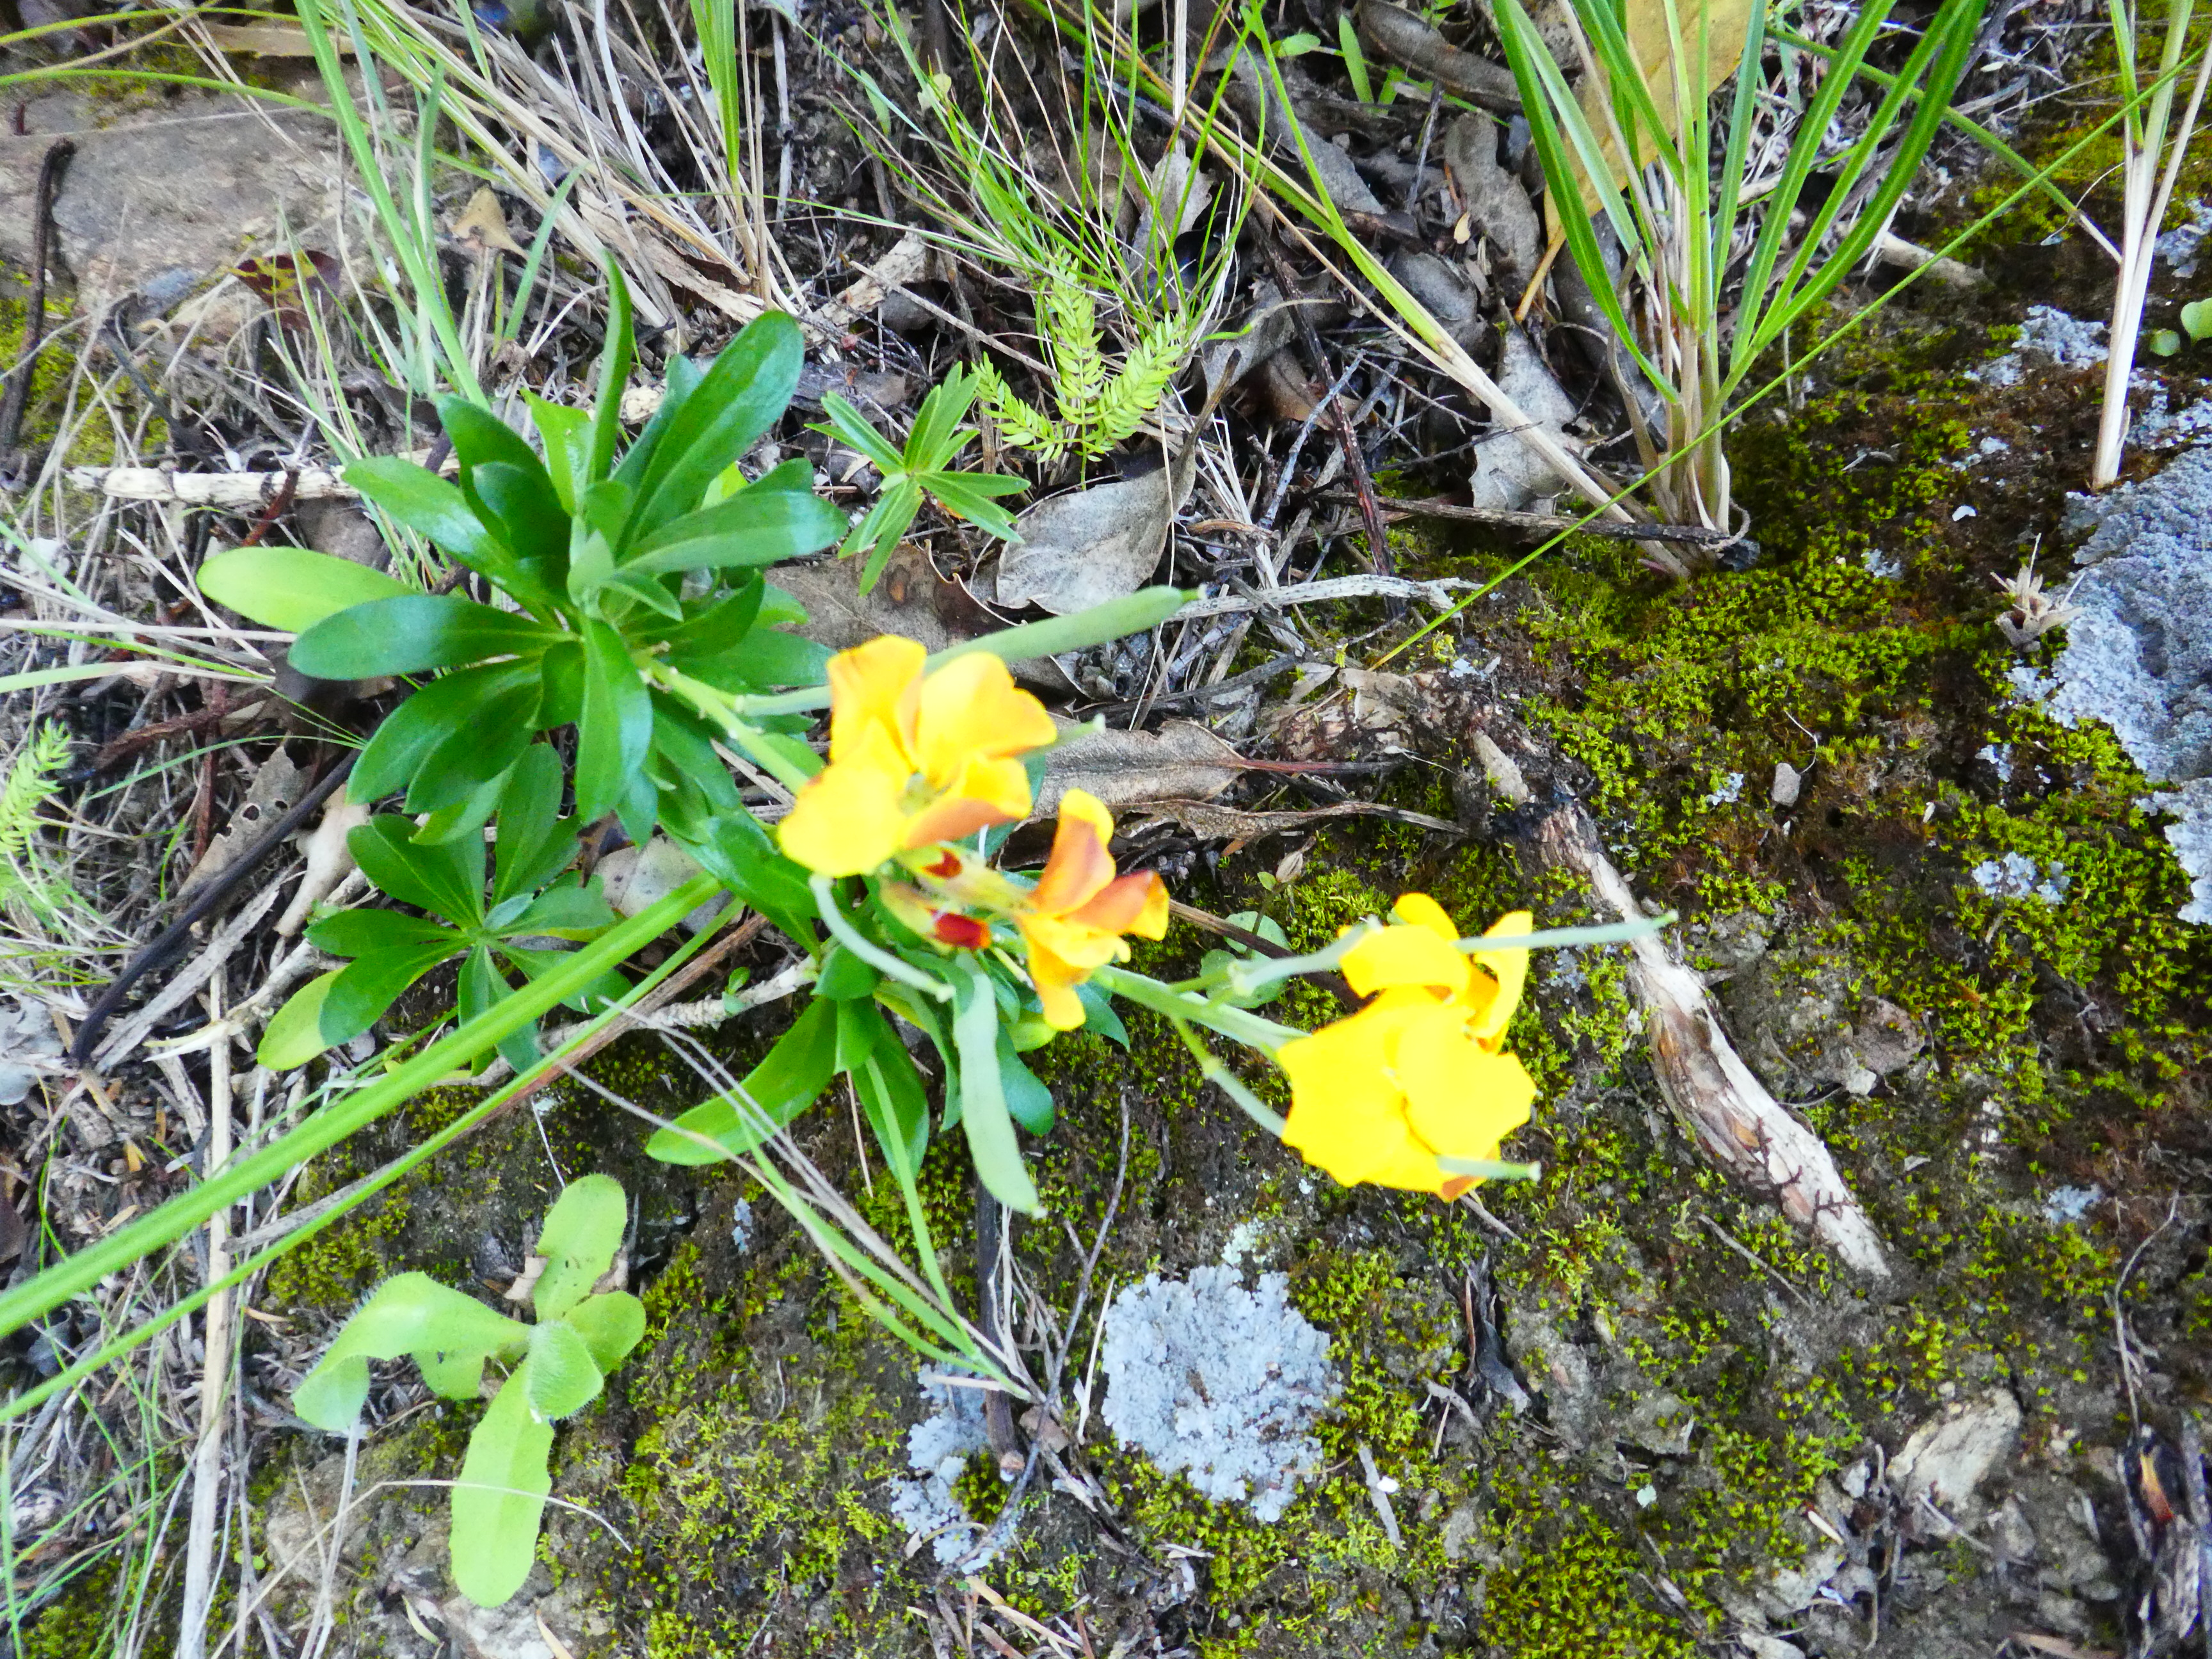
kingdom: Plantae
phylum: Tracheophyta
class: Magnoliopsida
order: Brassicales
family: Brassicaceae
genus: Erysimum
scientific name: Erysimum cheiri
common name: Wallflower
